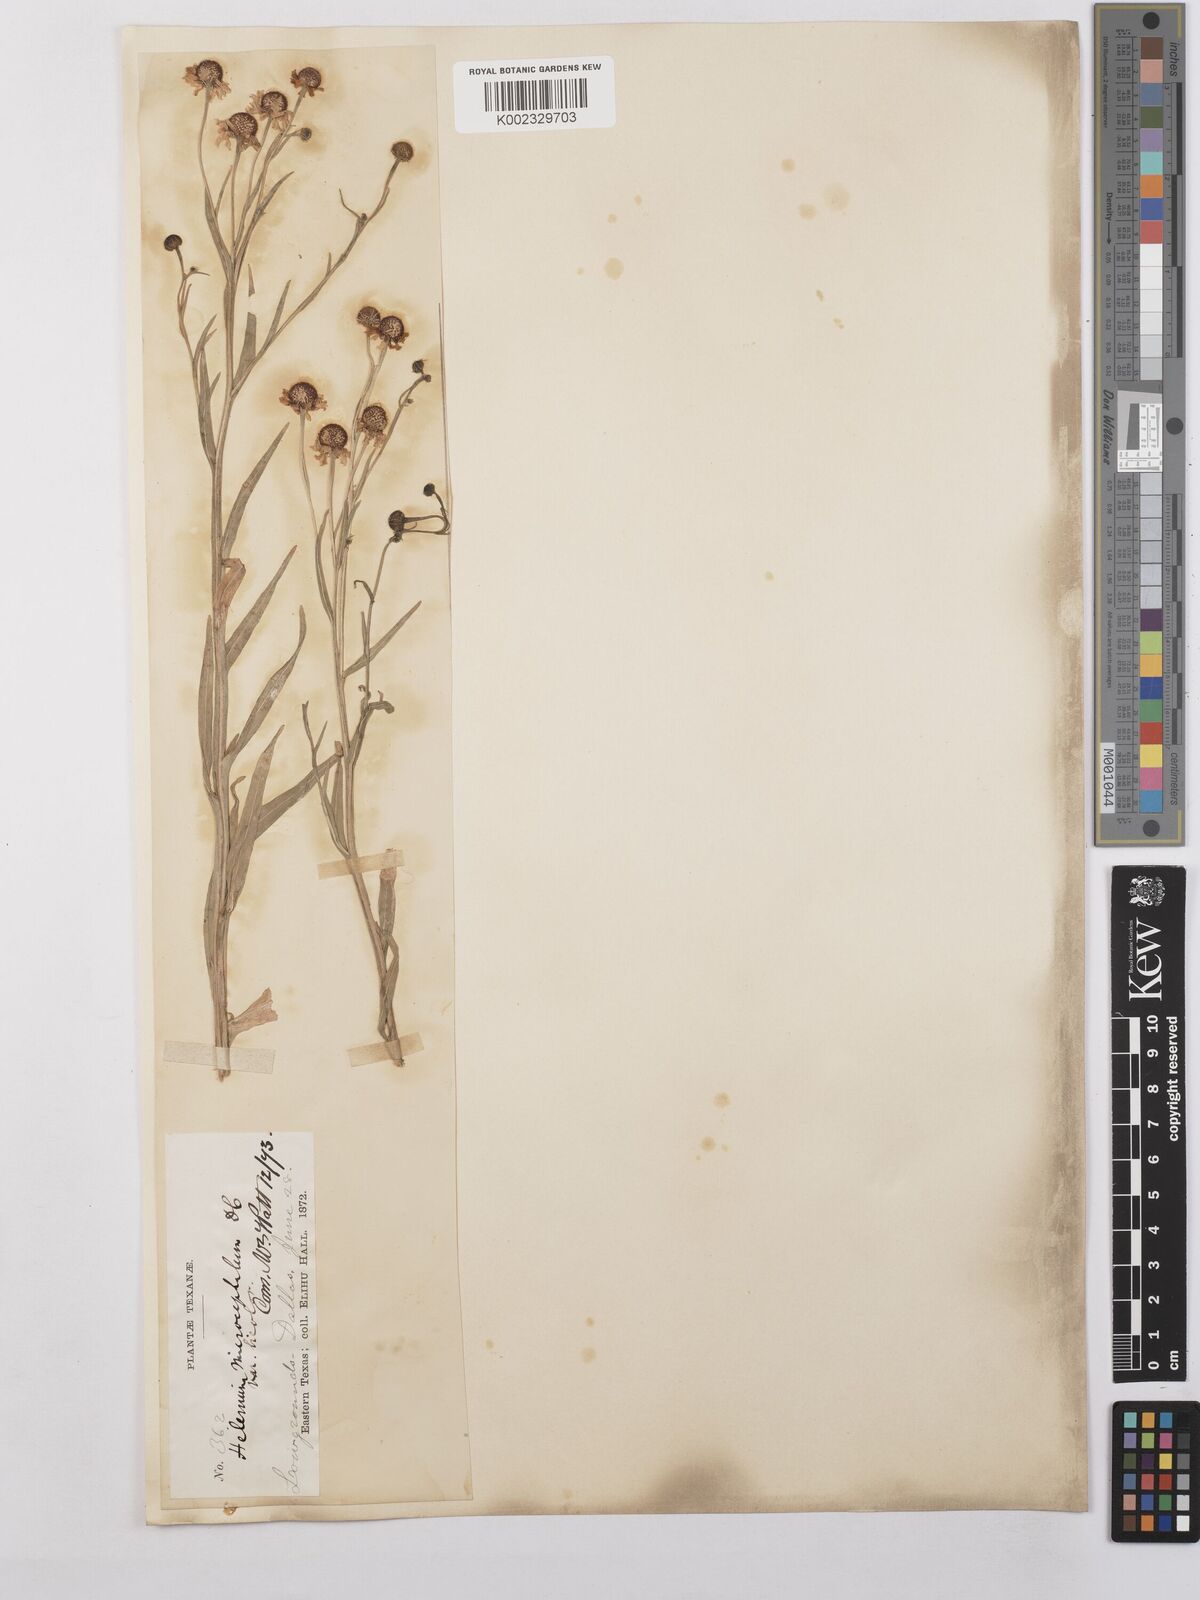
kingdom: Plantae
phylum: Tracheophyta
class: Magnoliopsida
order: Asterales
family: Asteraceae
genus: Helenium
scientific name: Helenium microcephalum
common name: Smallhead sneezeweed
